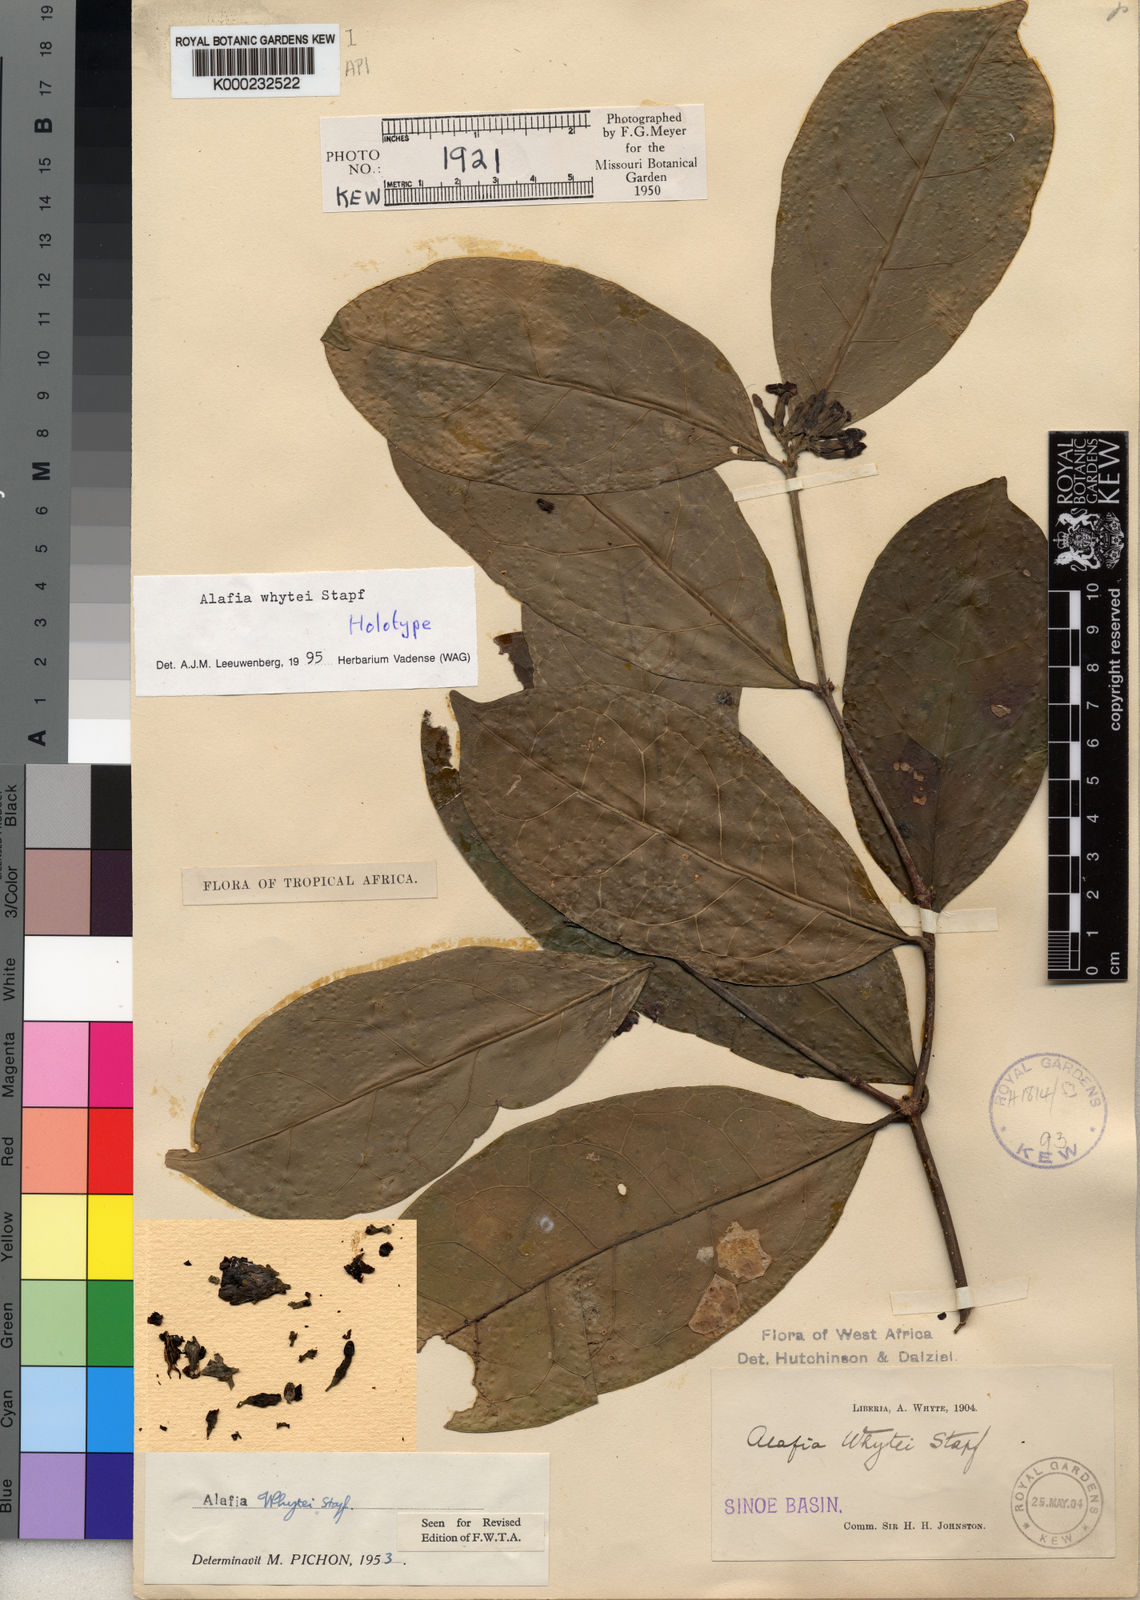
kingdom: Plantae
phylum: Tracheophyta
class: Magnoliopsida
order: Gentianales
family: Apocynaceae
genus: Alafia
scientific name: Alafia whytei
